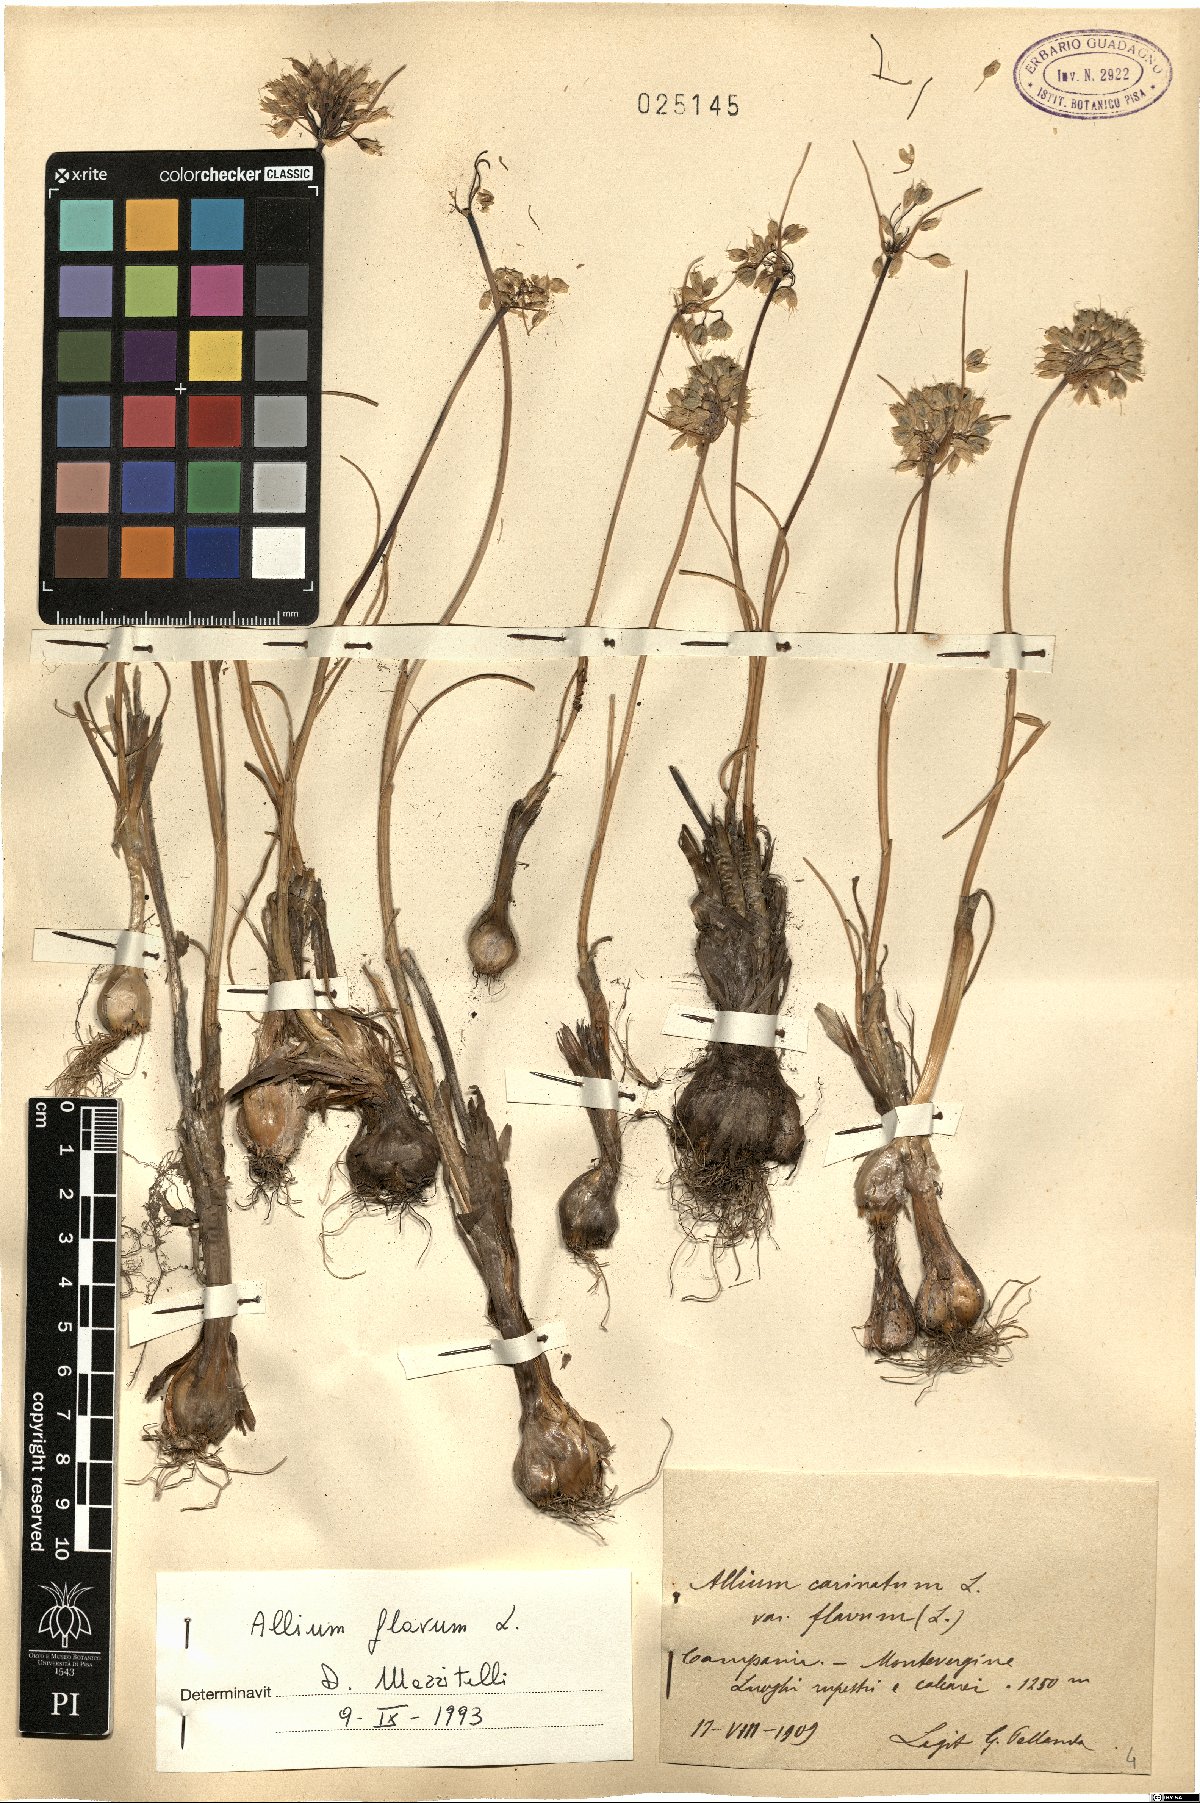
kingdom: Plantae
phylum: Tracheophyta
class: Liliopsida
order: Asparagales
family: Amaryllidaceae
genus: Allium
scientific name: Allium flavum
